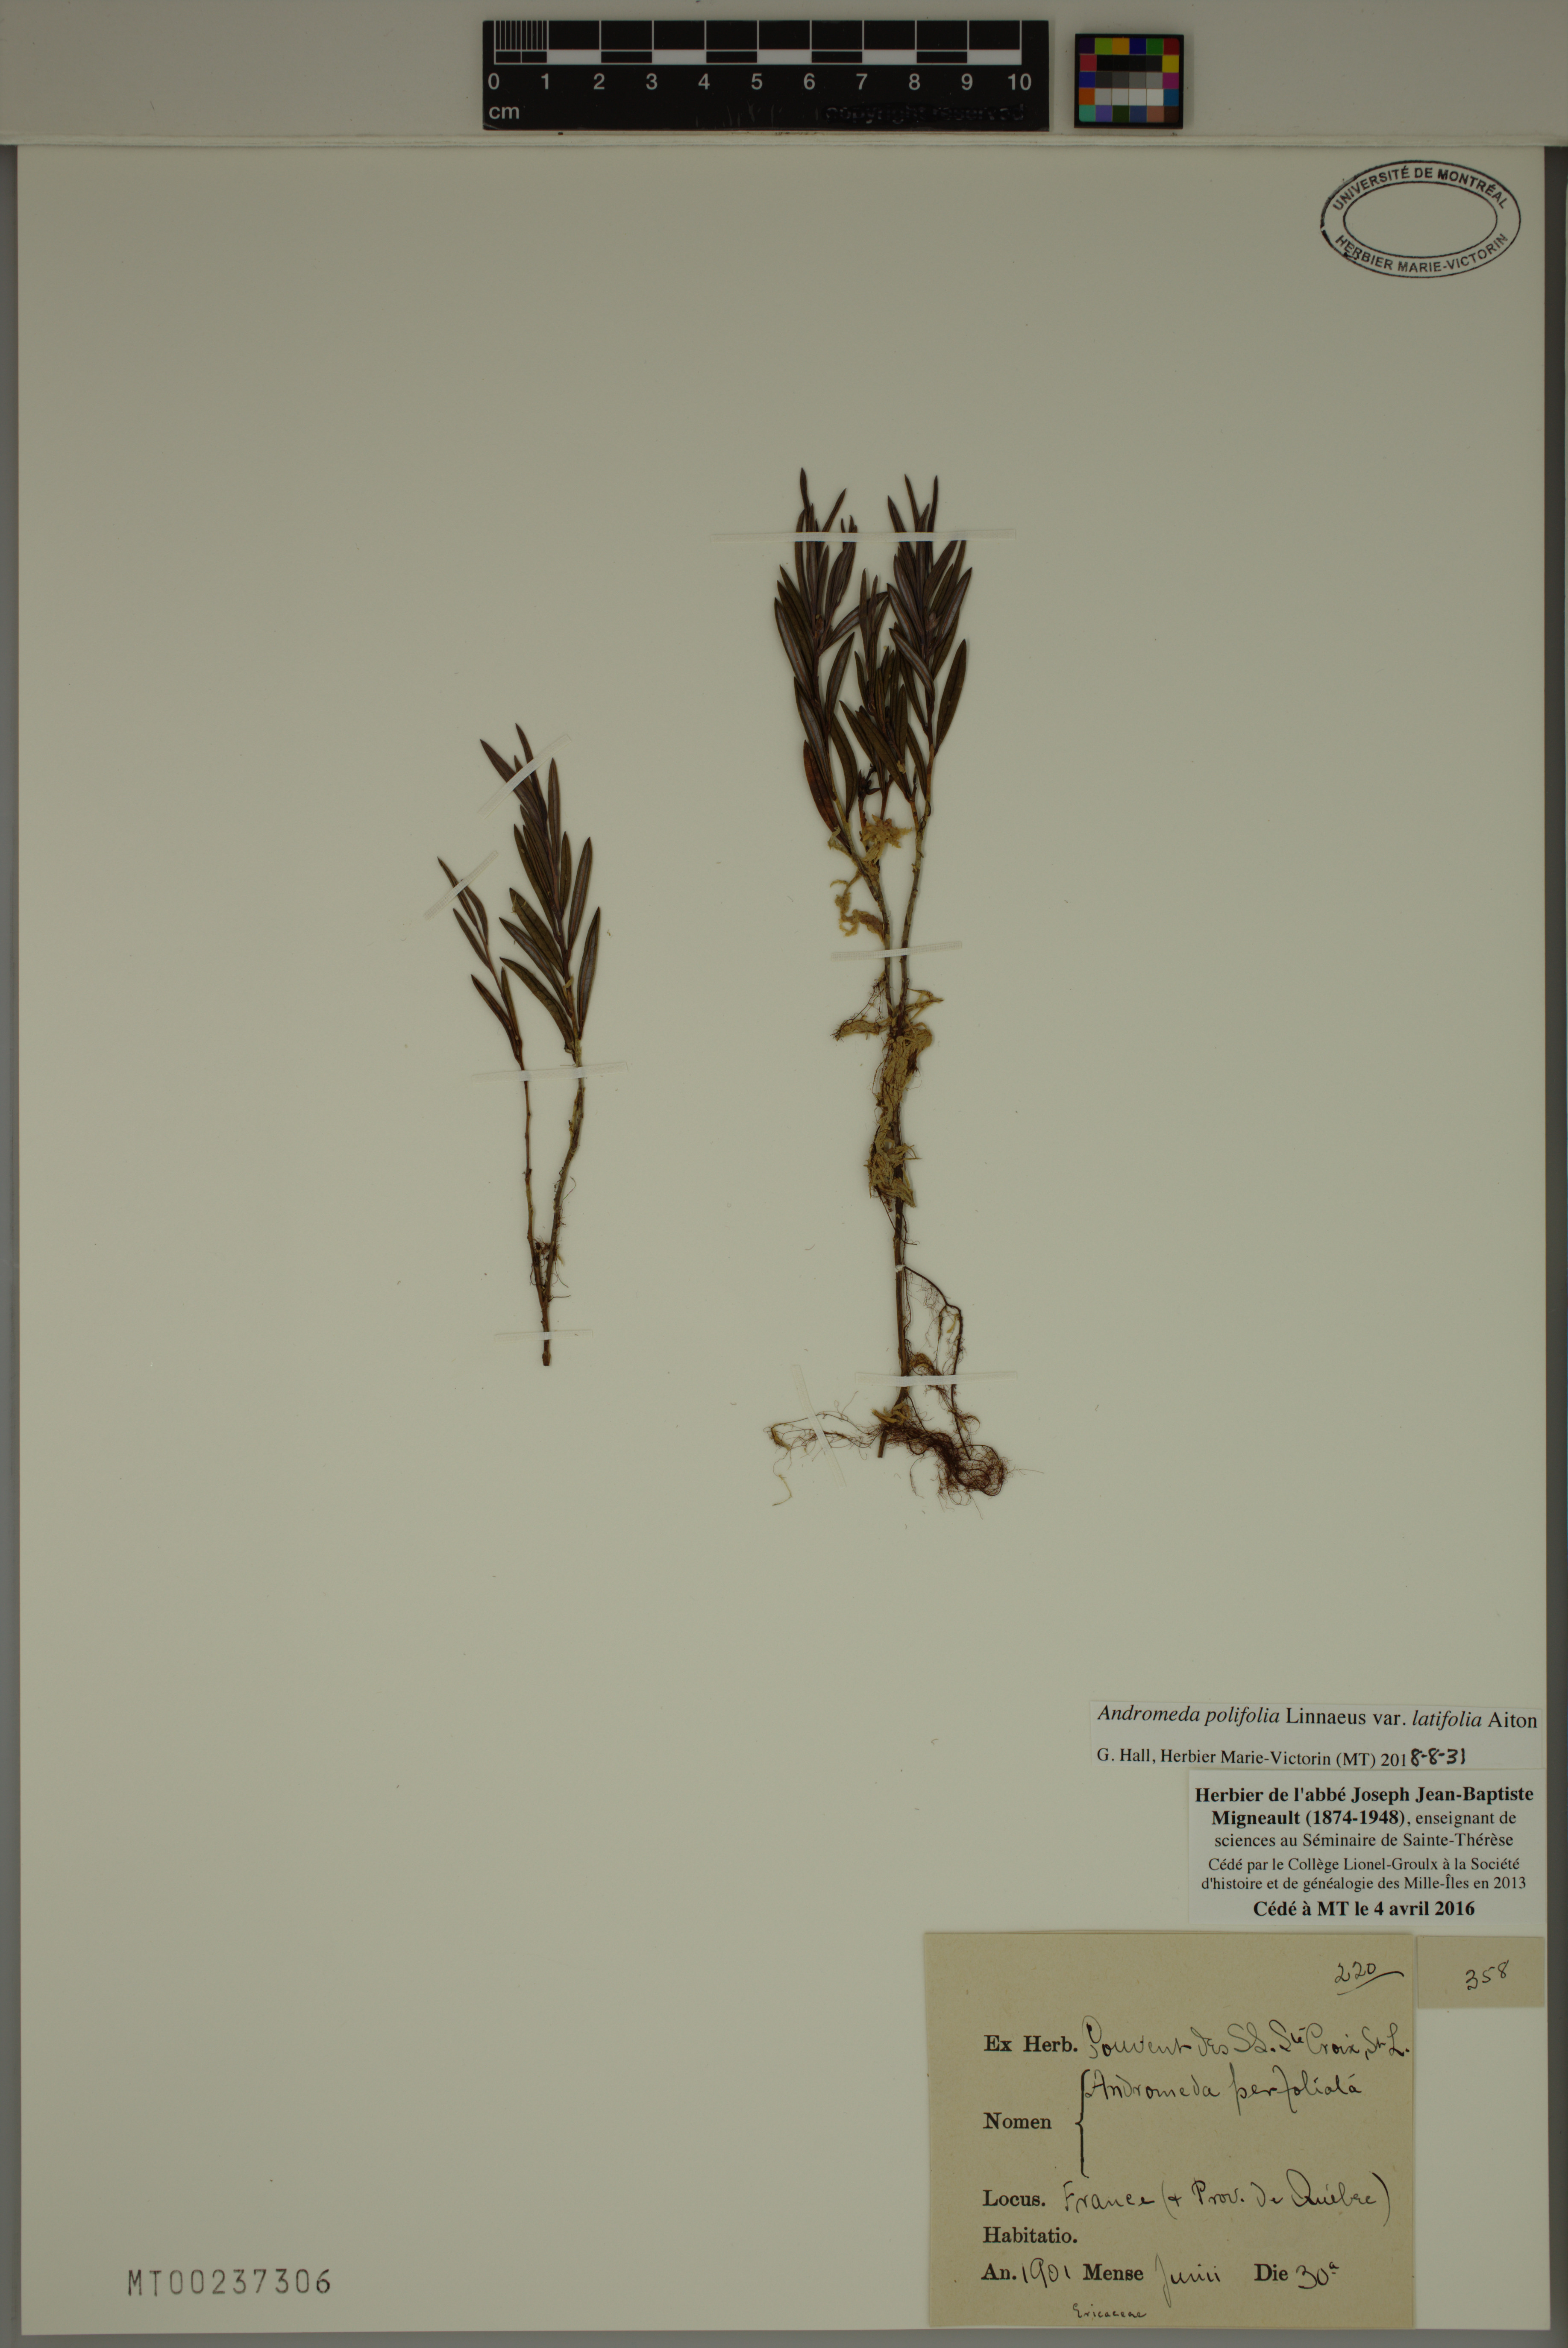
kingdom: Plantae
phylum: Tracheophyta
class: Magnoliopsida
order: Ericales
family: Ericaceae
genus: Andromeda
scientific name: Andromeda polifolia
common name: Bog-rosemary
